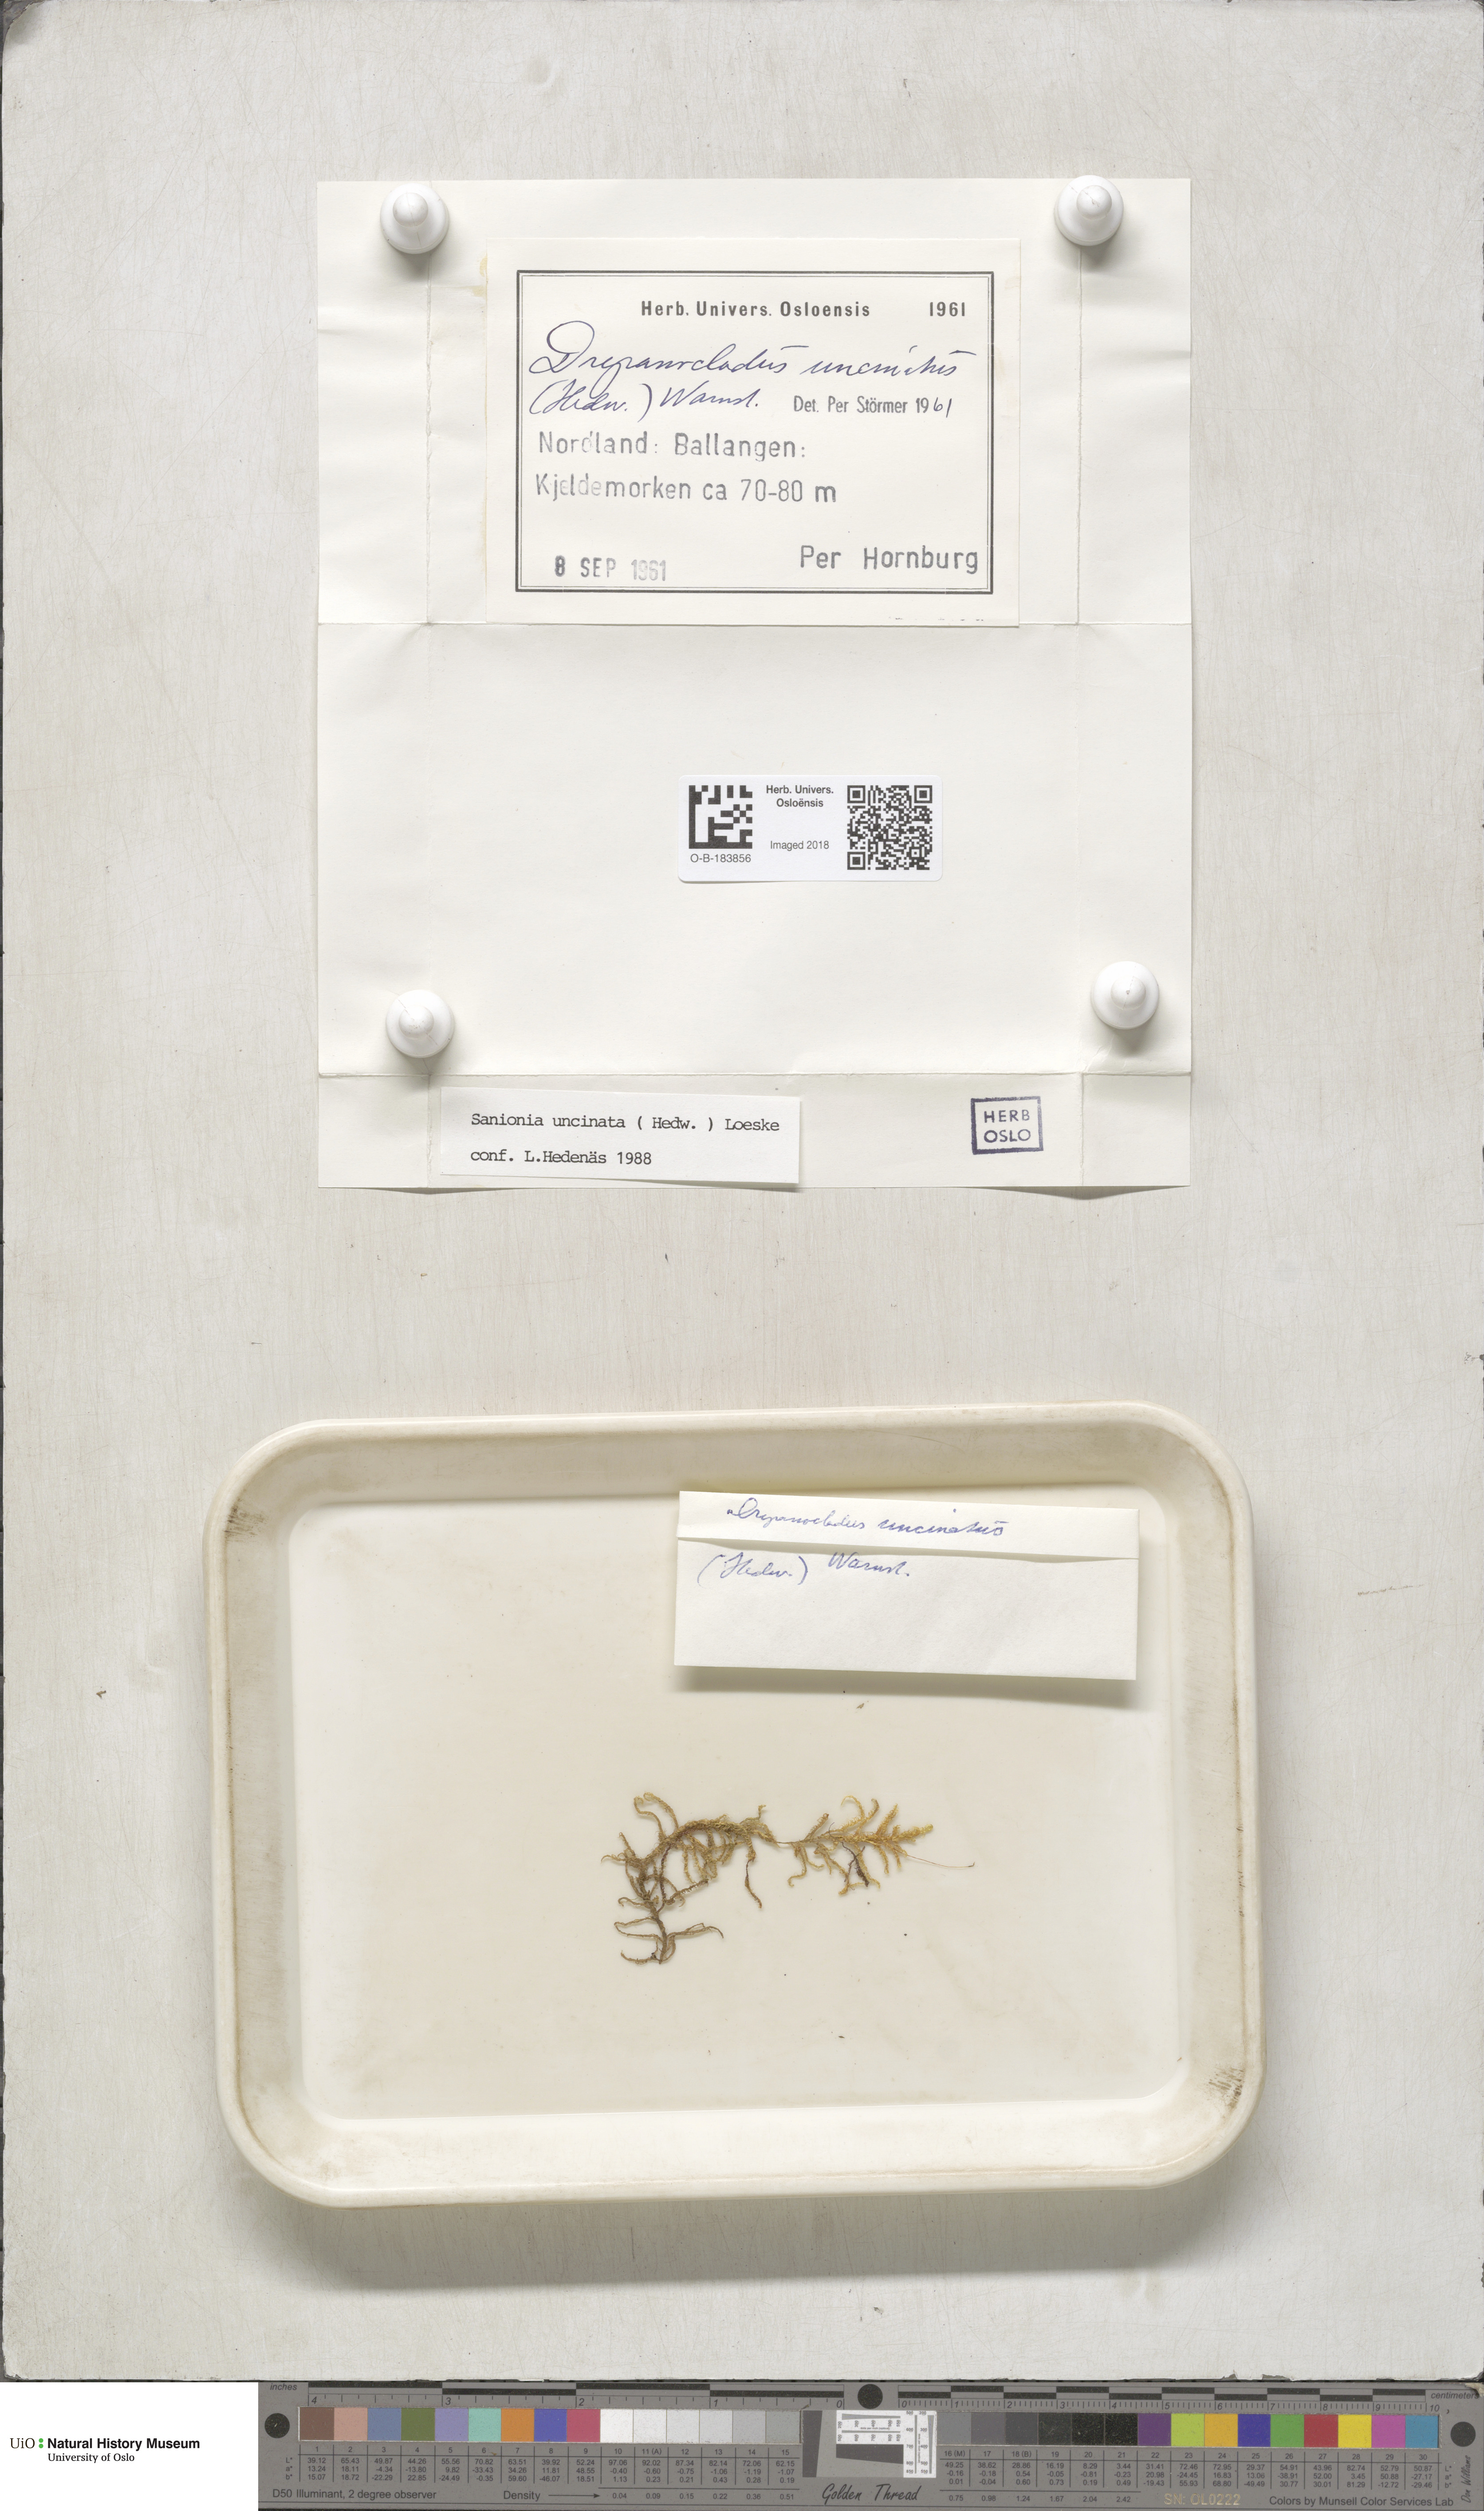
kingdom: Plantae
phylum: Bryophyta
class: Bryopsida
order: Hypnales
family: Scorpidiaceae
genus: Sanionia
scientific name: Sanionia uncinata
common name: Sickle moss
